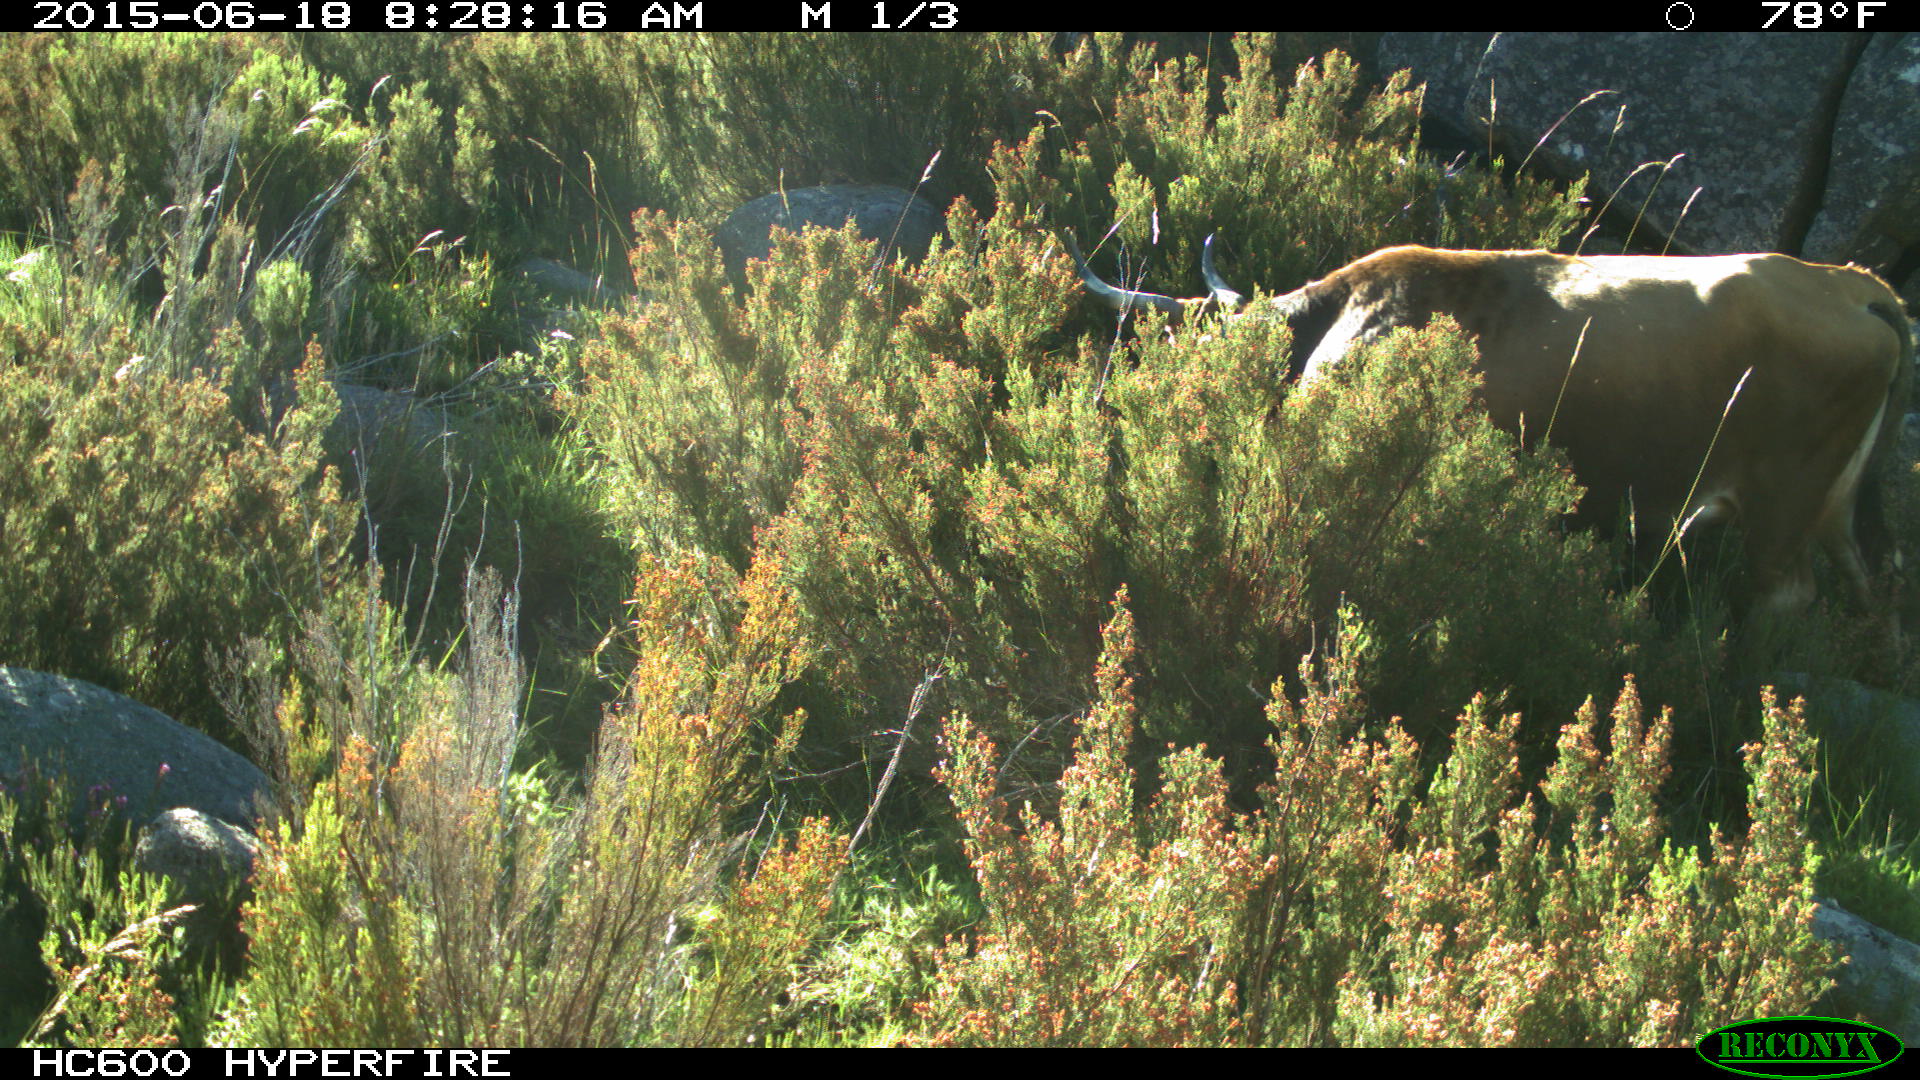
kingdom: Animalia
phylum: Chordata
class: Mammalia
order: Artiodactyla
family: Bovidae
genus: Bos
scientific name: Bos taurus
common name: Domesticated cattle
